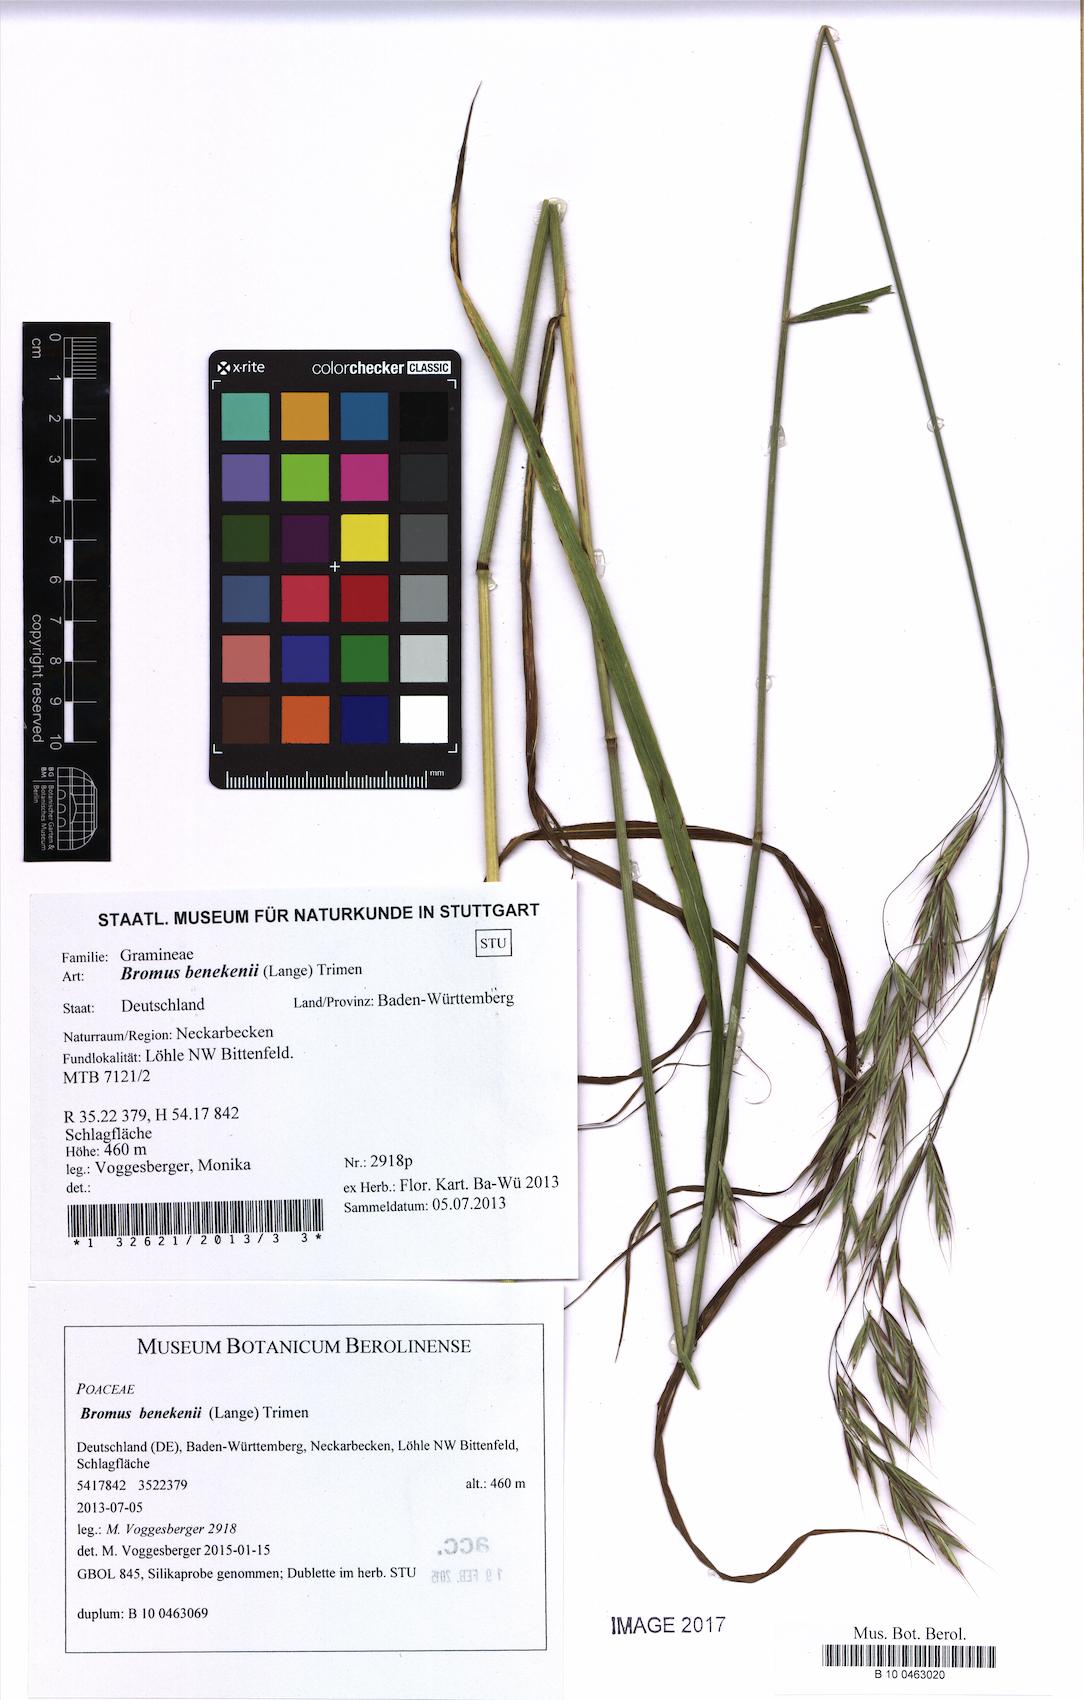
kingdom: Plantae
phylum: Tracheophyta
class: Liliopsida
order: Poales
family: Poaceae
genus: Bromus
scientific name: Bromus benekenii
